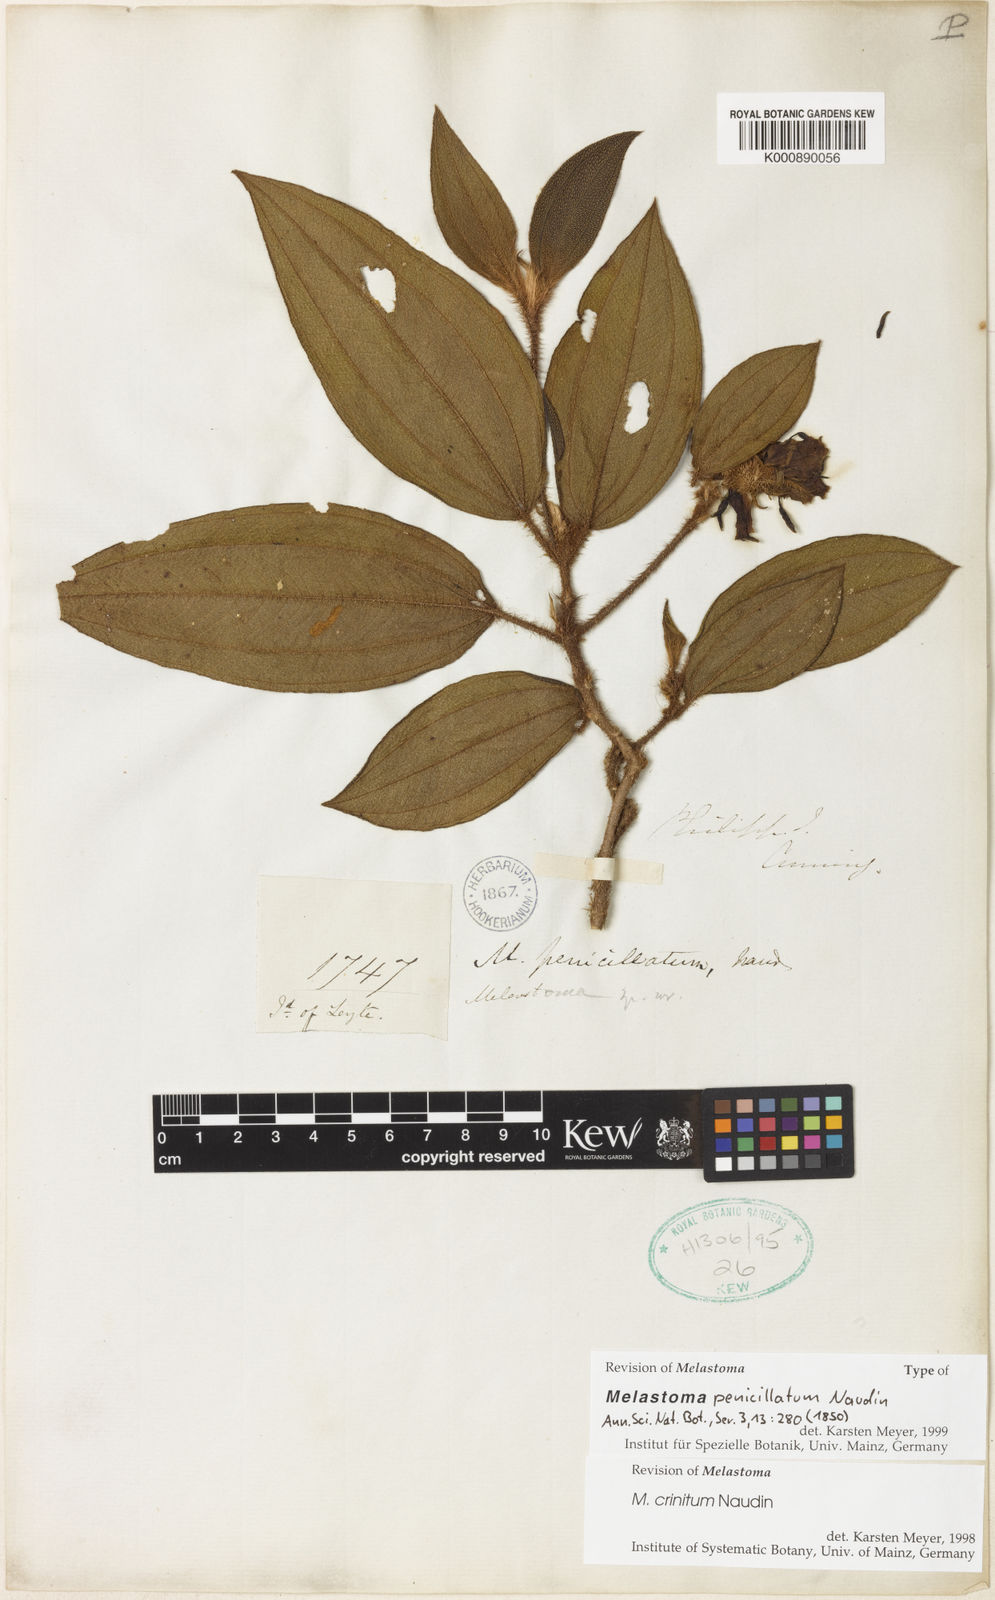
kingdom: Plantae
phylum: Tracheophyta
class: Magnoliopsida
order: Myrtales
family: Melastomataceae
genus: Melastoma
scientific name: Melastoma penicillatum
